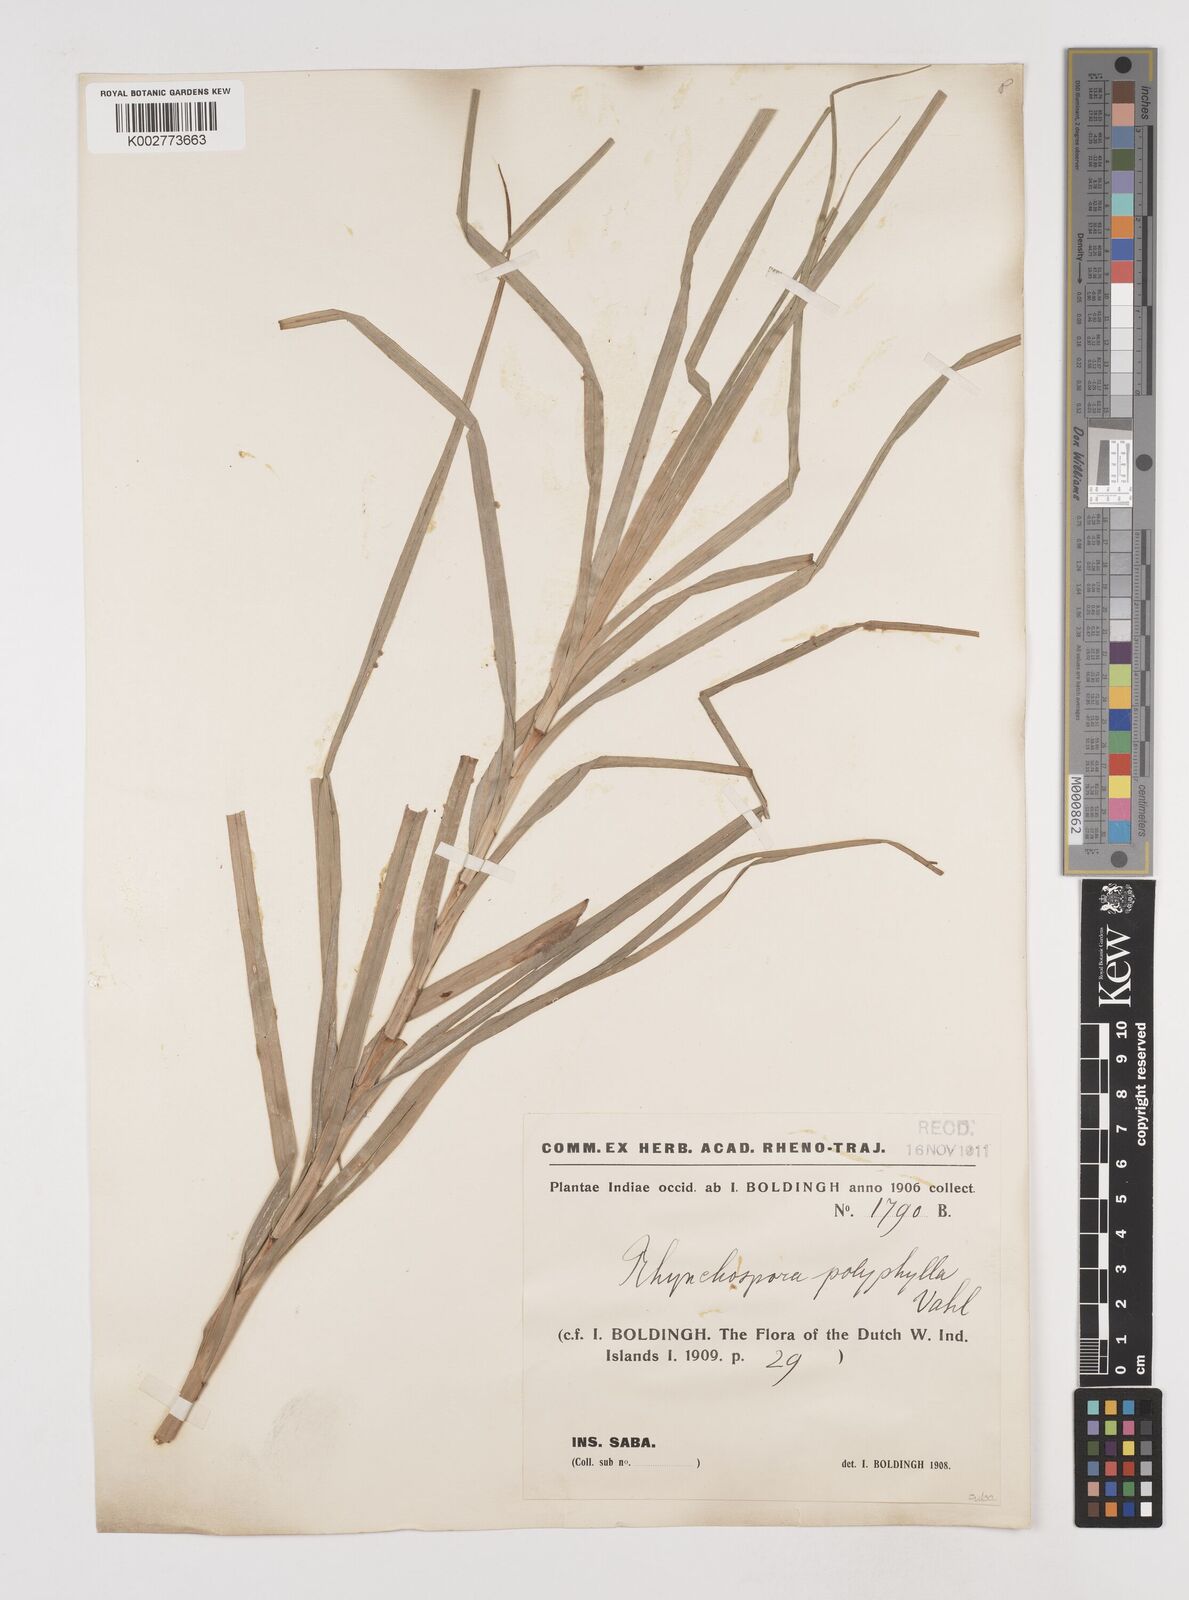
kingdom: Plantae
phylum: Tracheophyta
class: Liliopsida
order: Poales
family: Cyperaceae
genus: Rhynchospora
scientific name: Rhynchospora polyphylla
